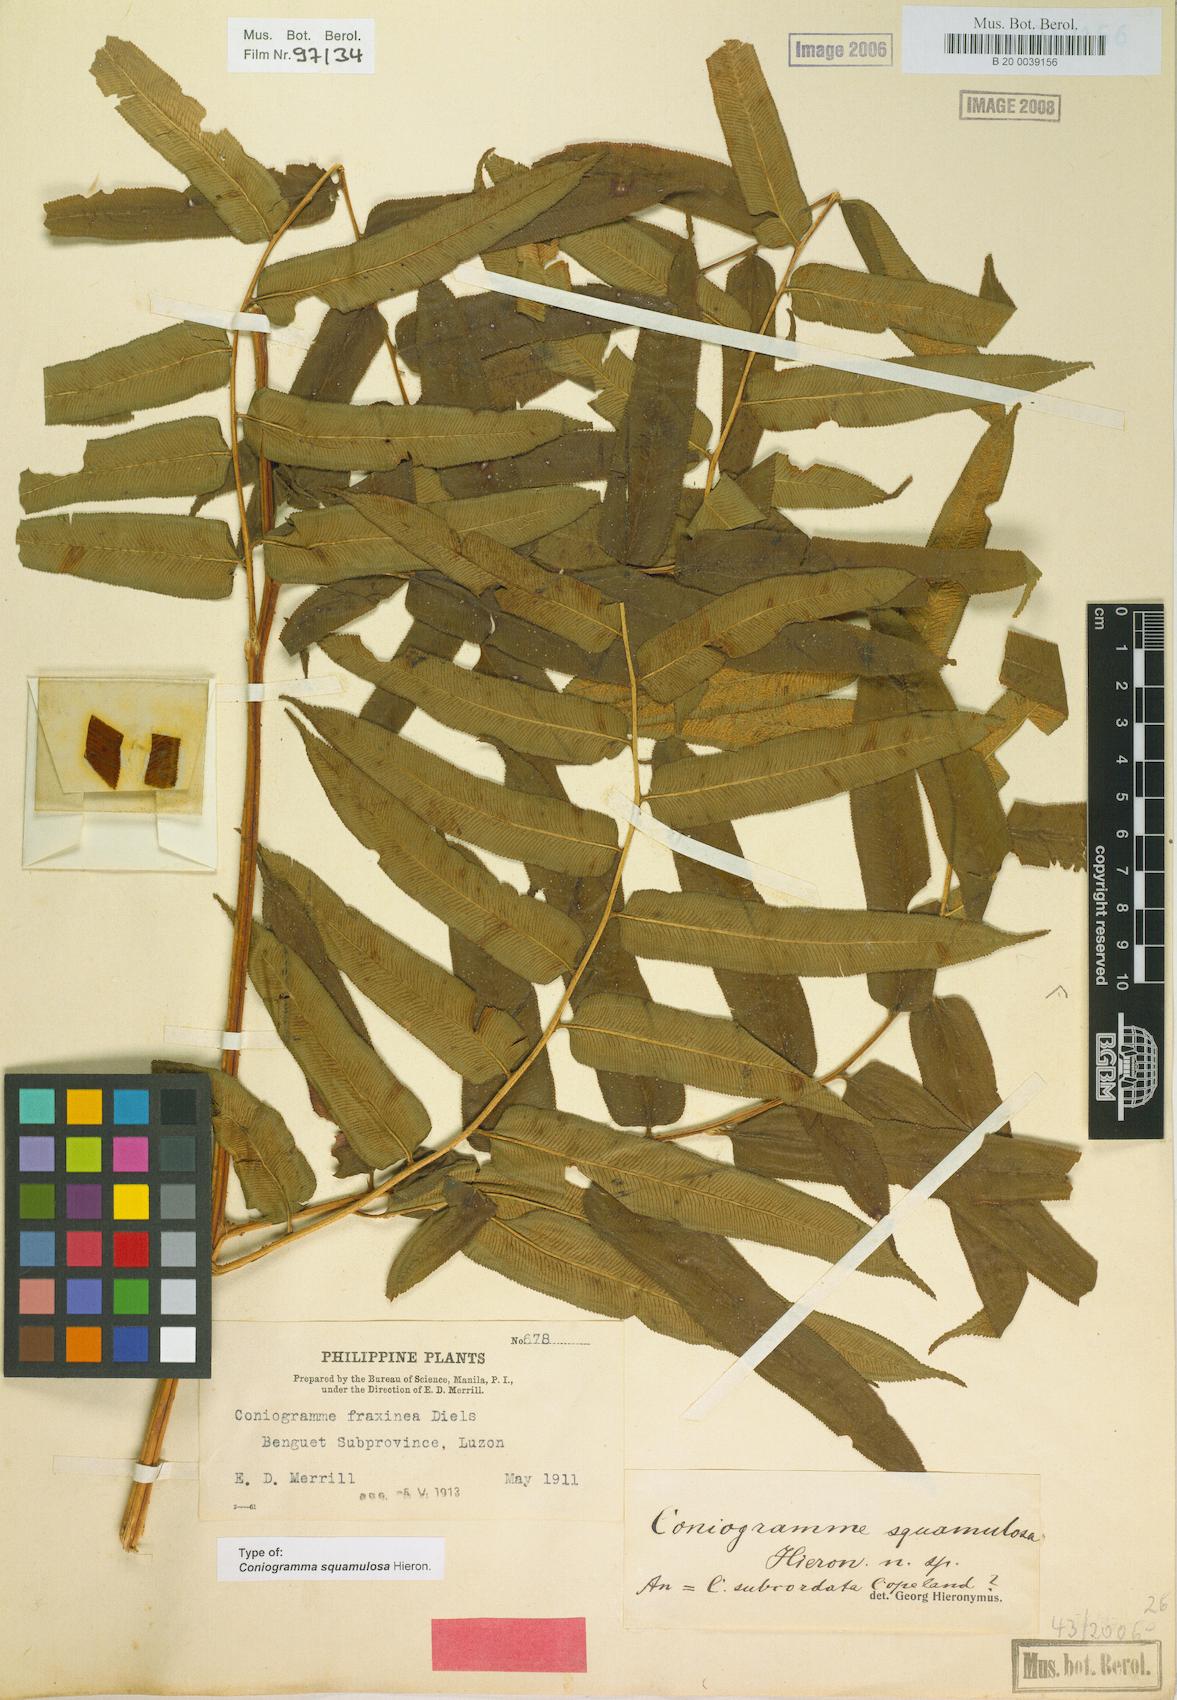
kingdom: Plantae
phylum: Tracheophyta
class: Polypodiopsida
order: Polypodiales
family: Pteridaceae
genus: Coniogramme
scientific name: Coniogramme serrulata
